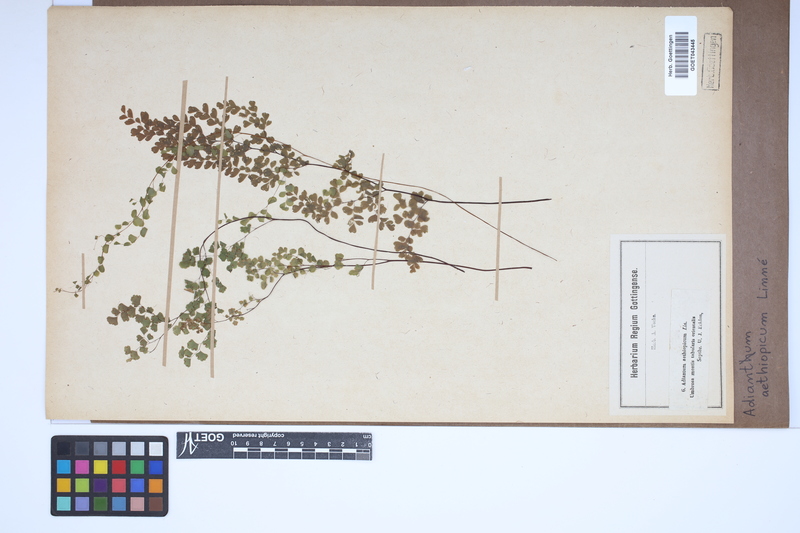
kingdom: Plantae
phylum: Tracheophyta
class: Polypodiopsida
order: Polypodiales
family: Pteridaceae
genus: Adiantum
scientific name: Adiantum aethiopicum
